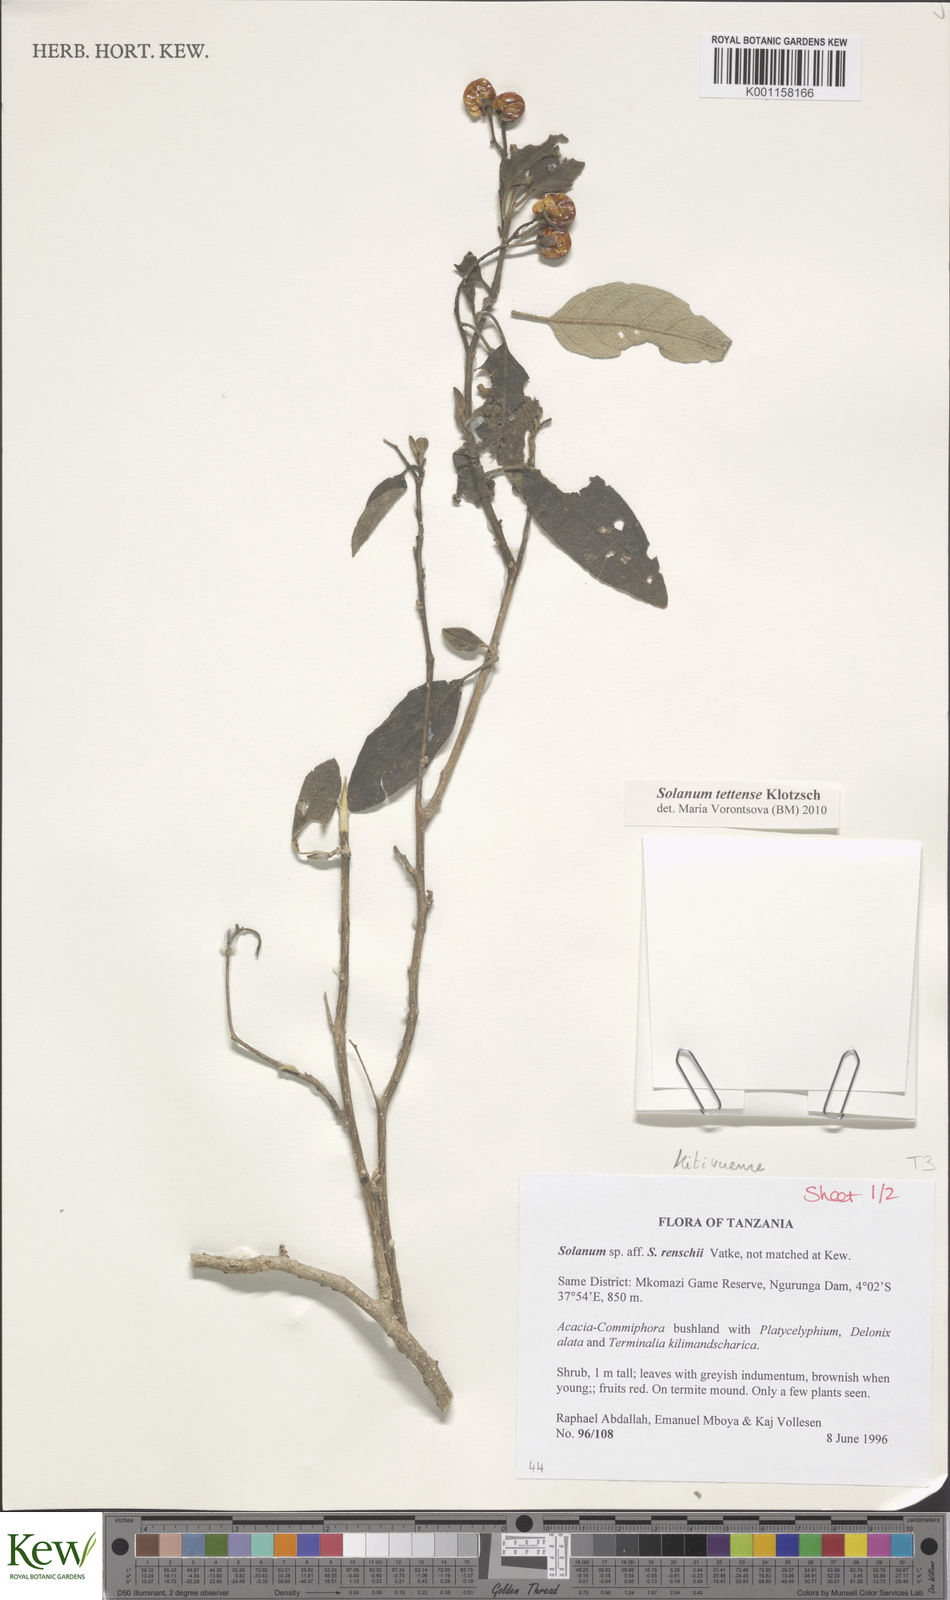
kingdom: Plantae
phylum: Tracheophyta
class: Magnoliopsida
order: Solanales
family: Solanaceae
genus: Solanum
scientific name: Solanum tettense
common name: Mozambique bitter apple
